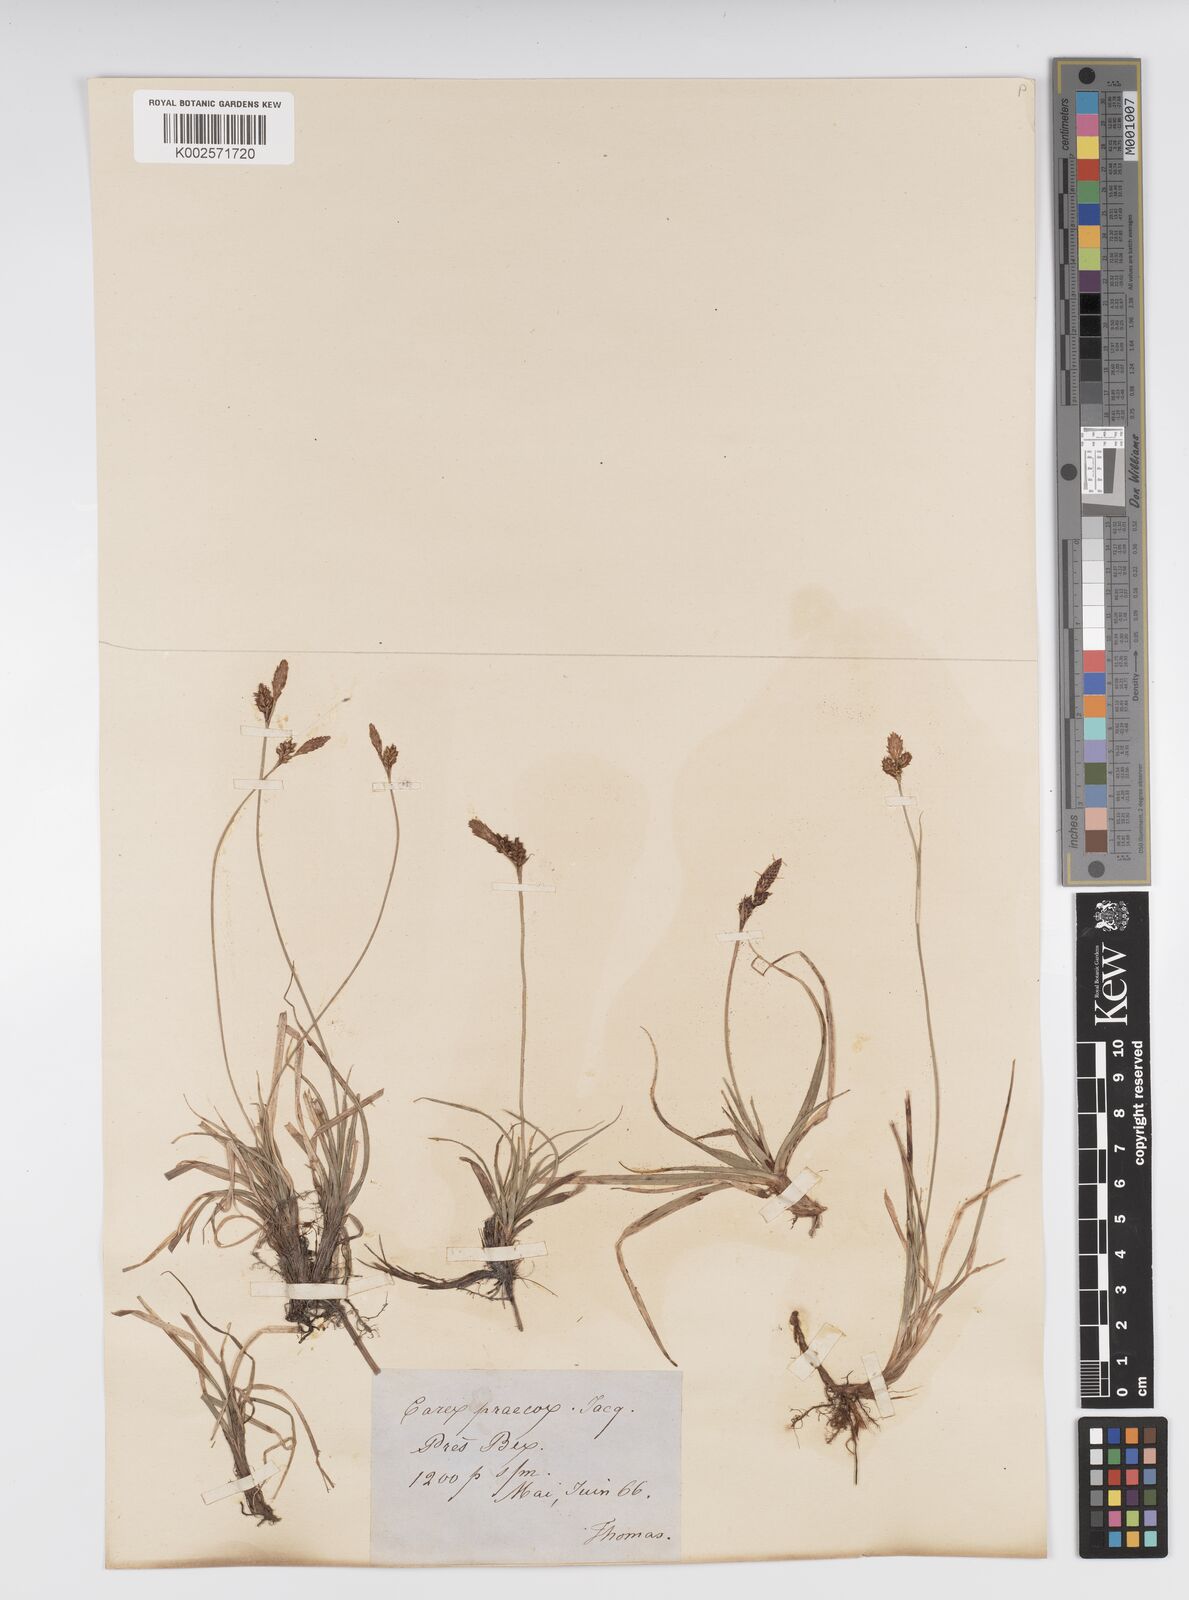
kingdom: Plantae
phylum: Tracheophyta
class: Liliopsida
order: Poales
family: Cyperaceae
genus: Carex
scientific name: Carex caryophyllea
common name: Spring sedge
